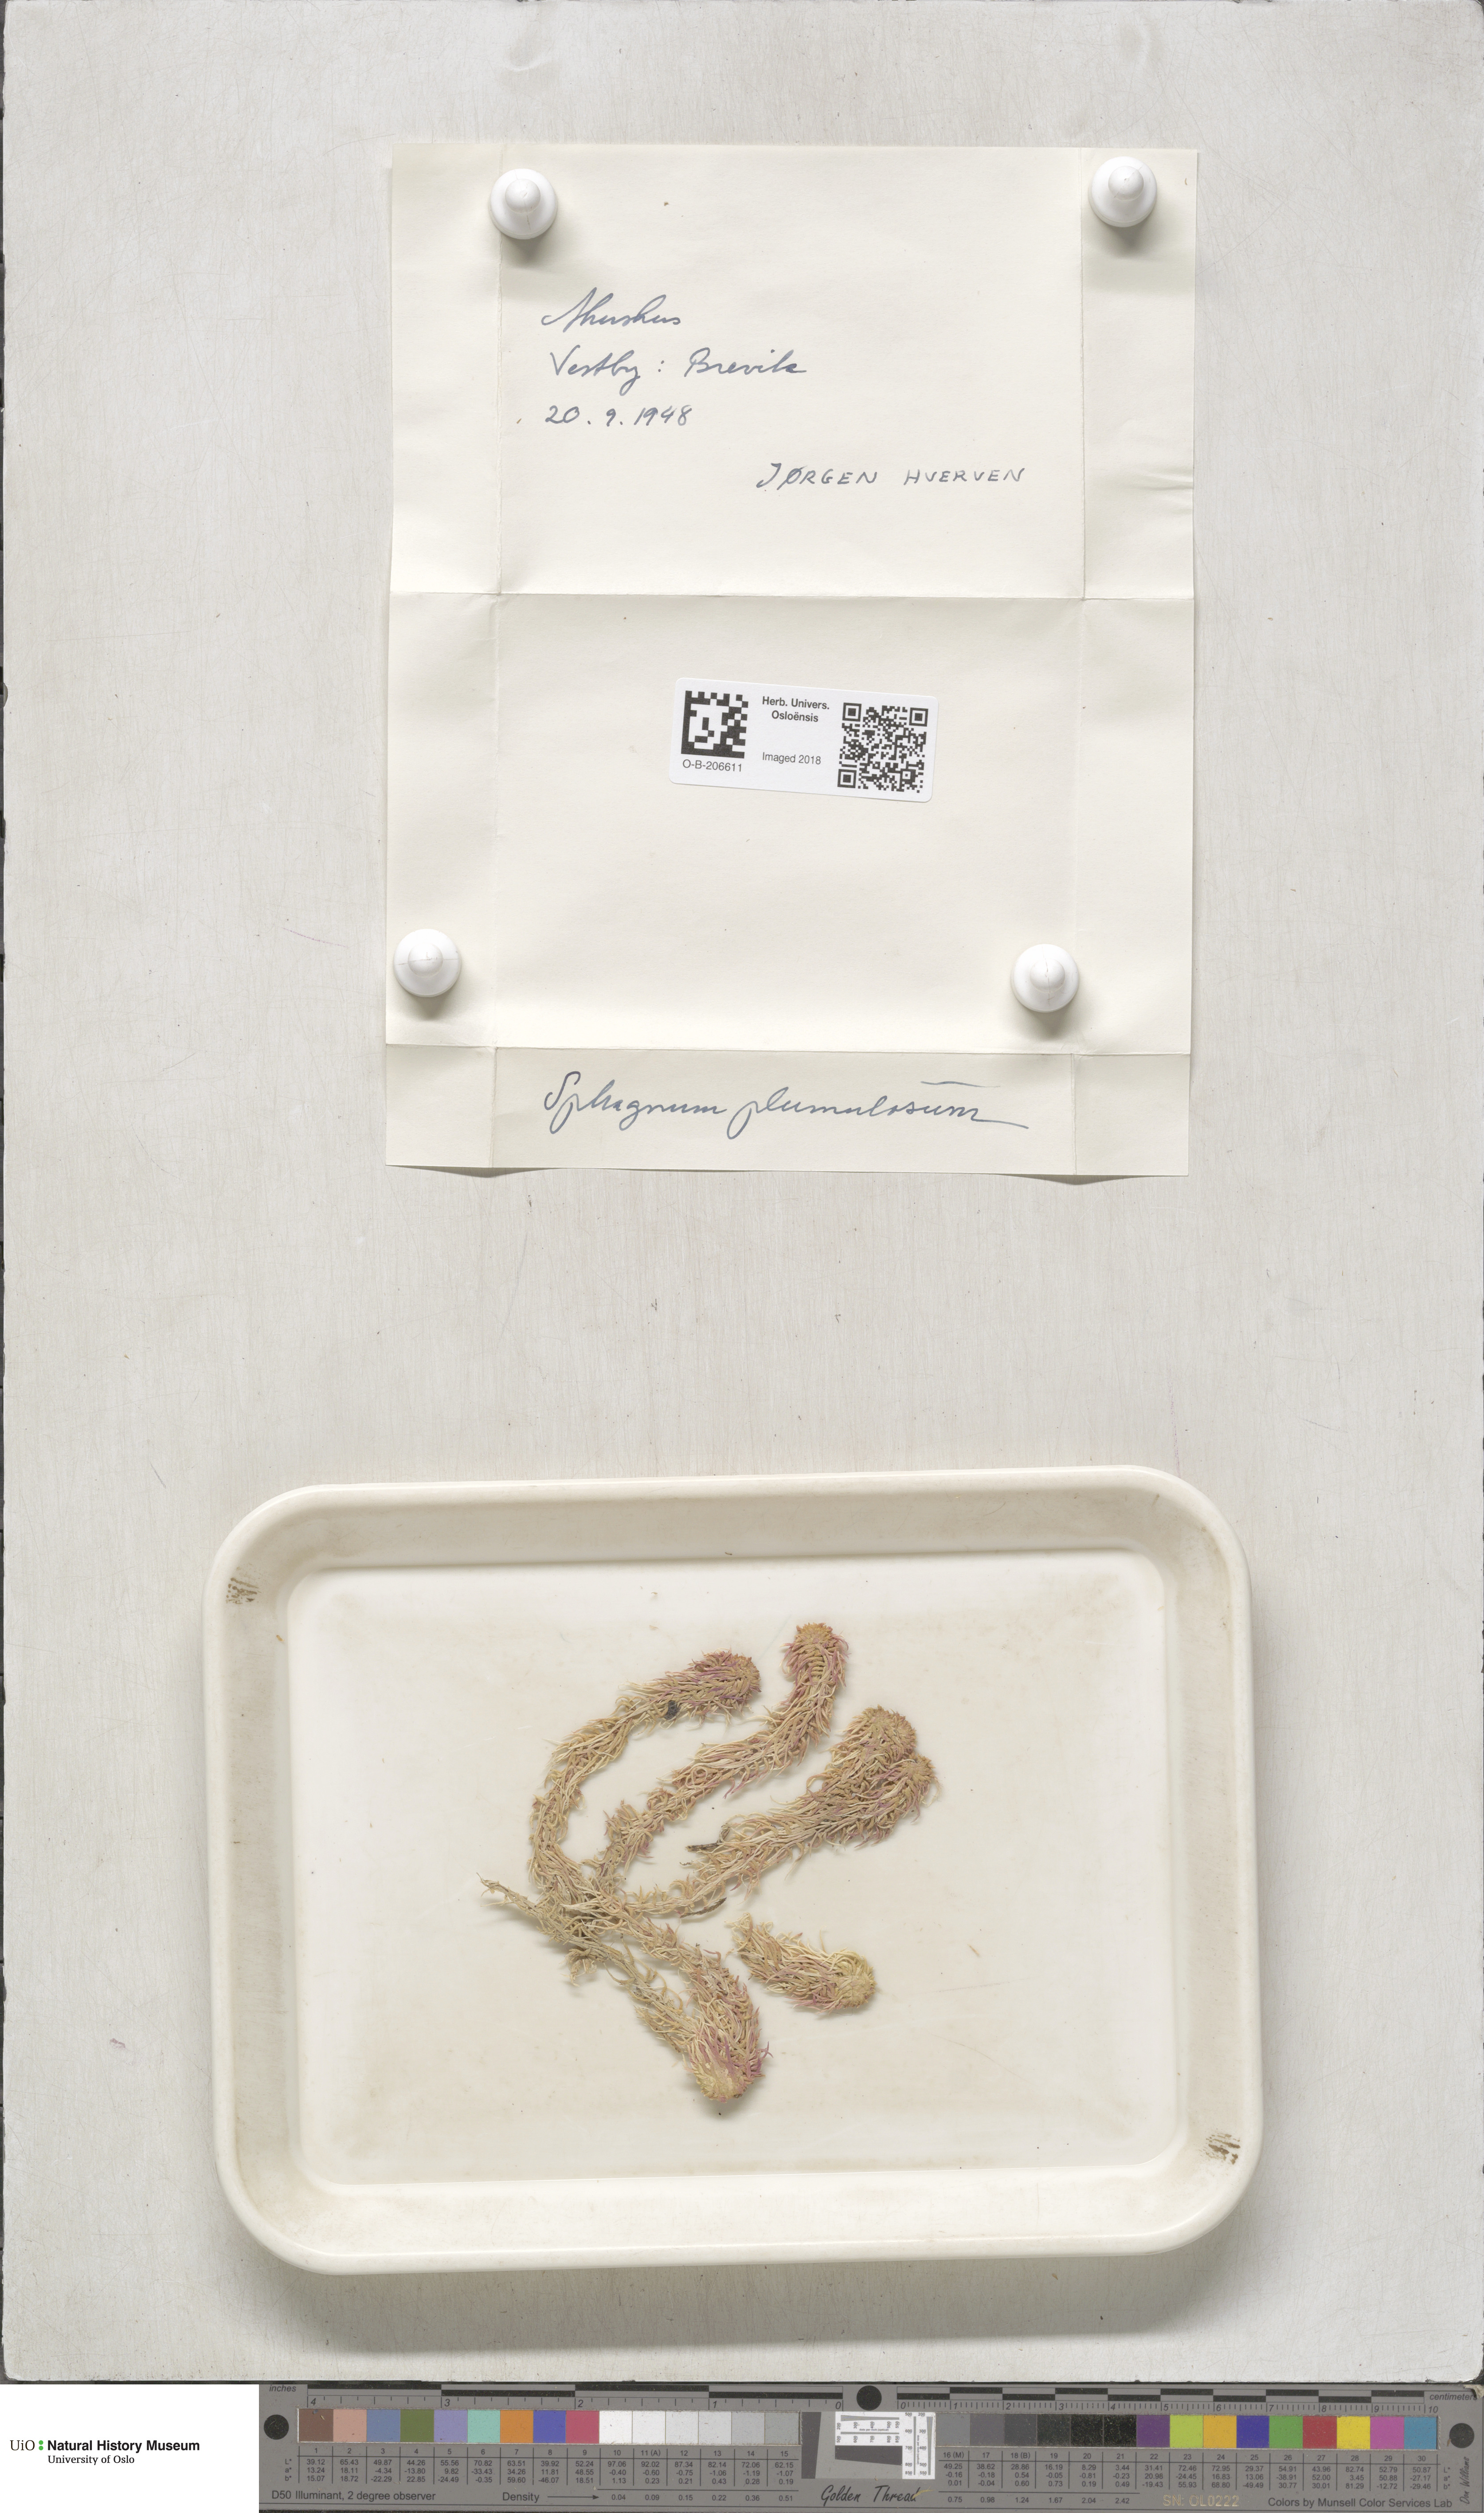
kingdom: Plantae
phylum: Bryophyta
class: Sphagnopsida
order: Sphagnales
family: Sphagnaceae
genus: Sphagnum
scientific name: Sphagnum subnitens
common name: Lustrous bog-moss
